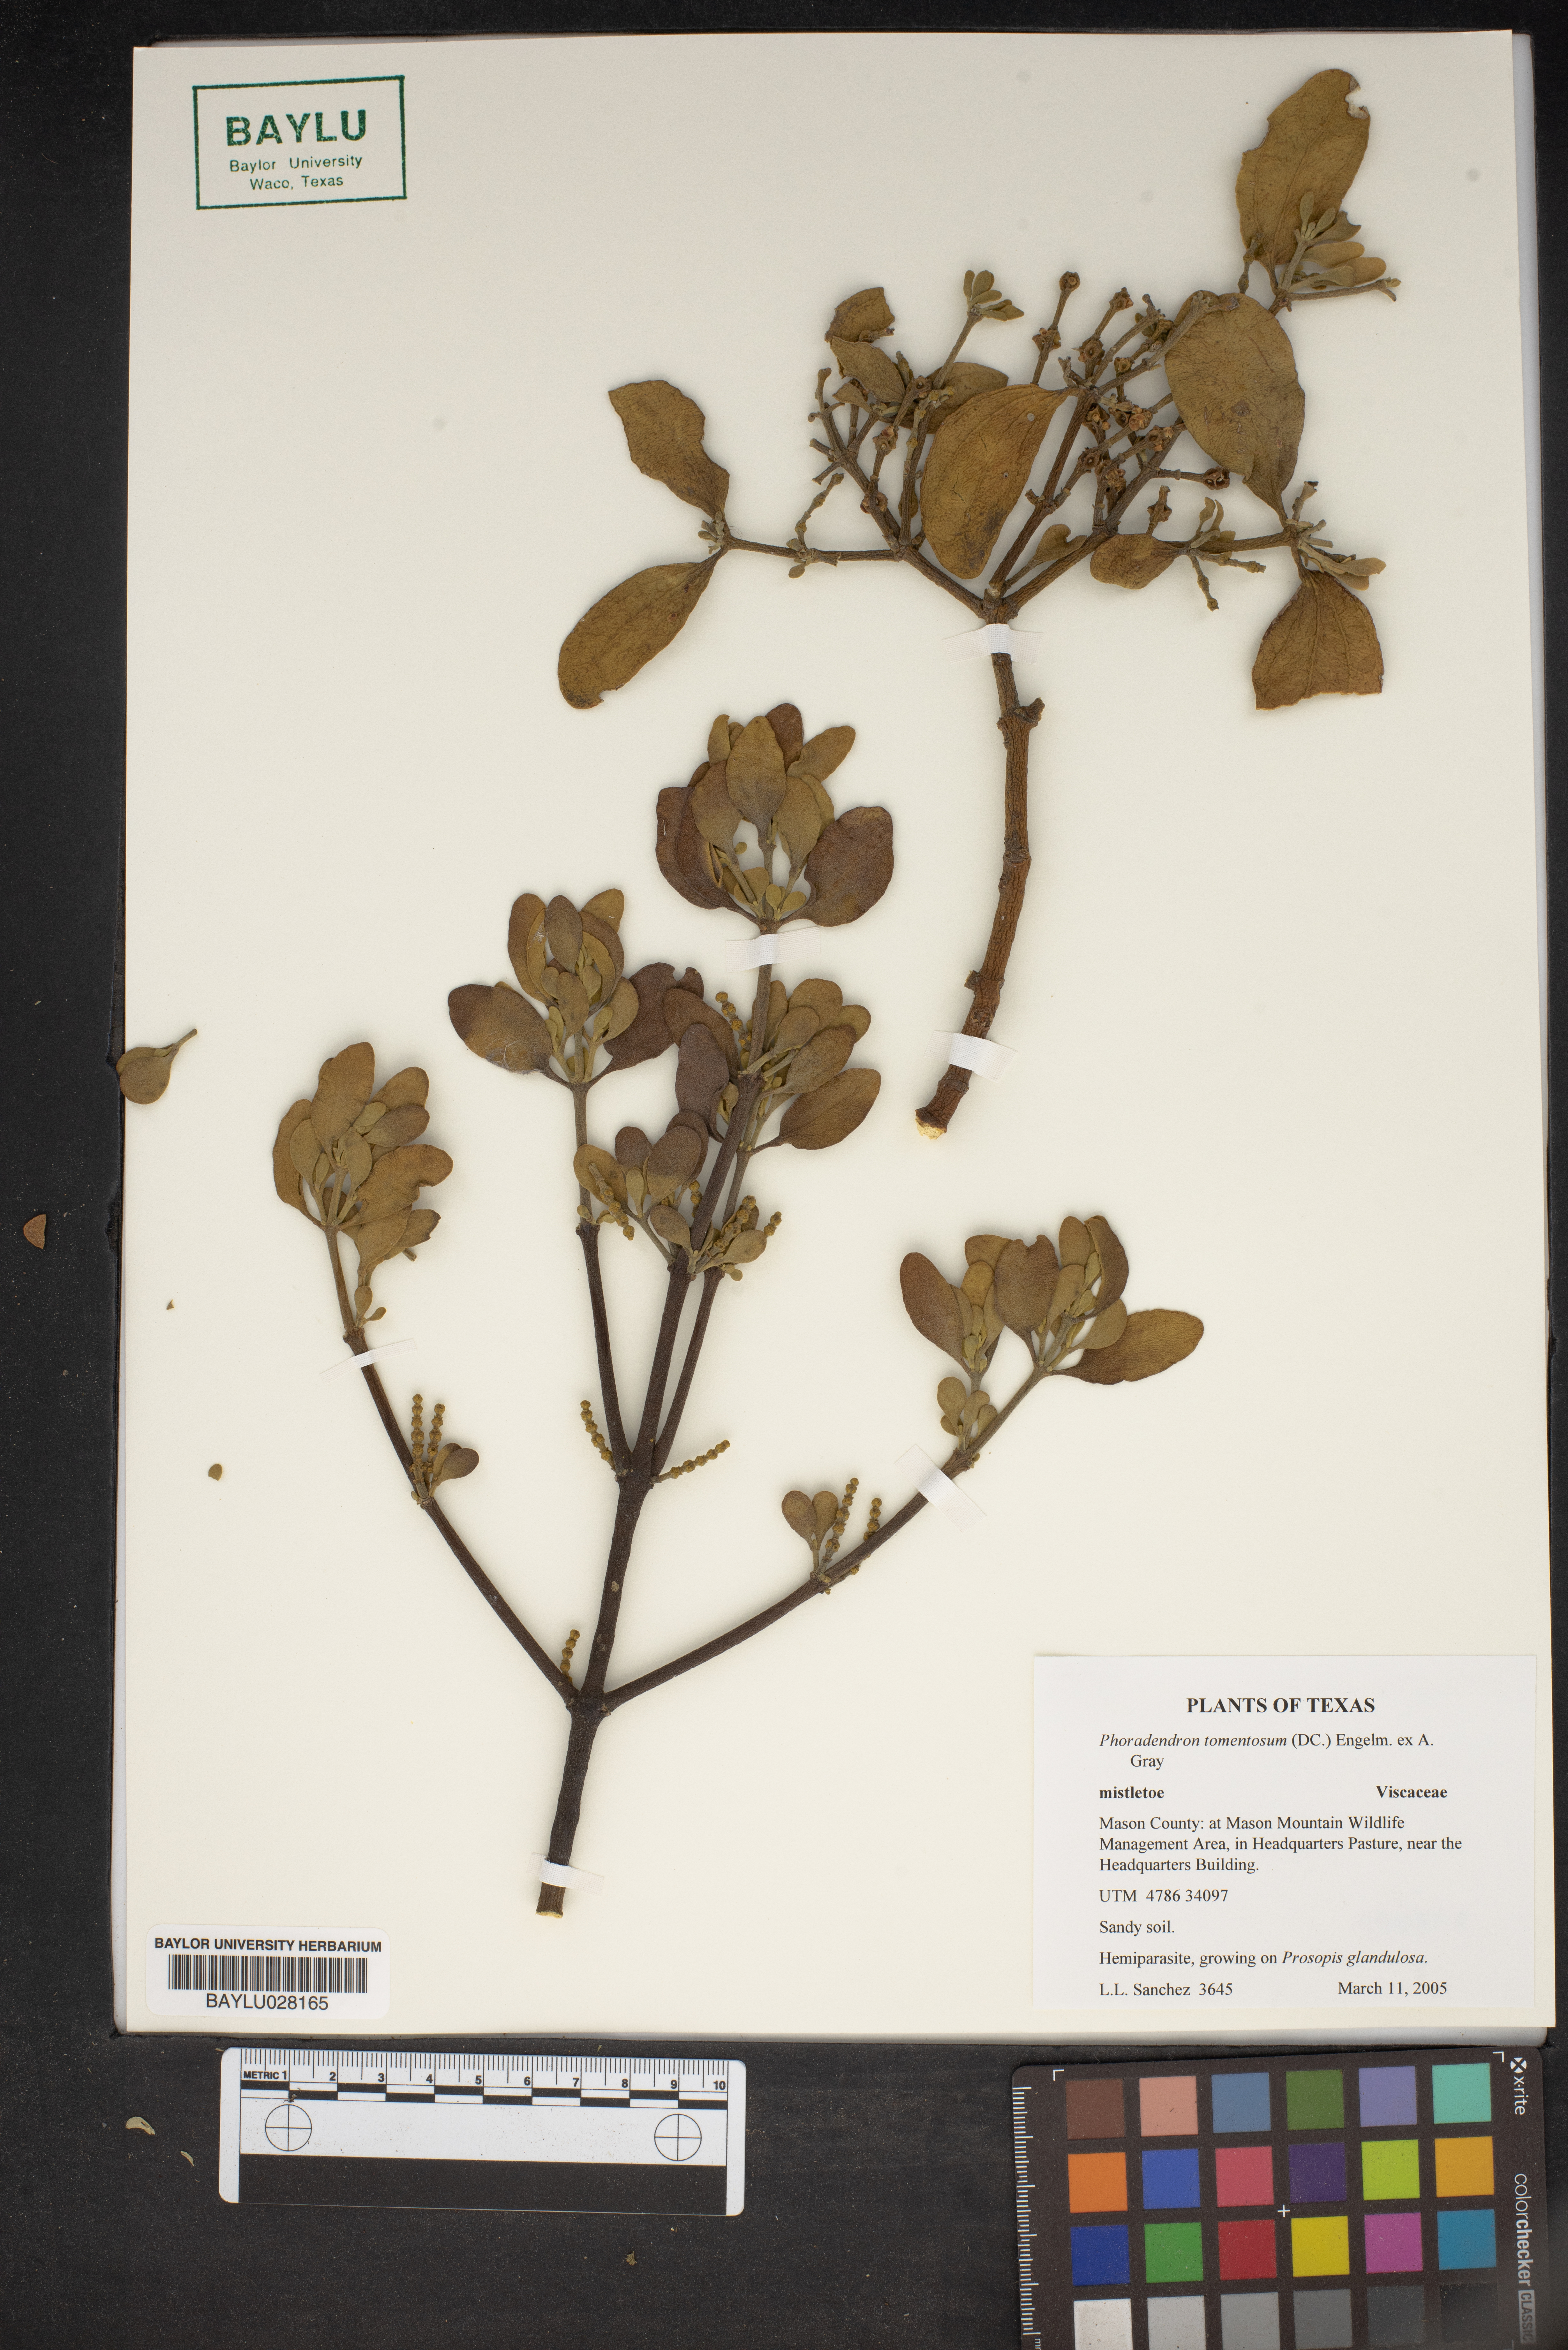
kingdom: Plantae
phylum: Tracheophyta
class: Magnoliopsida
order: Santalales
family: Viscaceae
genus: Phoradendron
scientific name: Phoradendron leucarpum
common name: Pacific mistletoe
